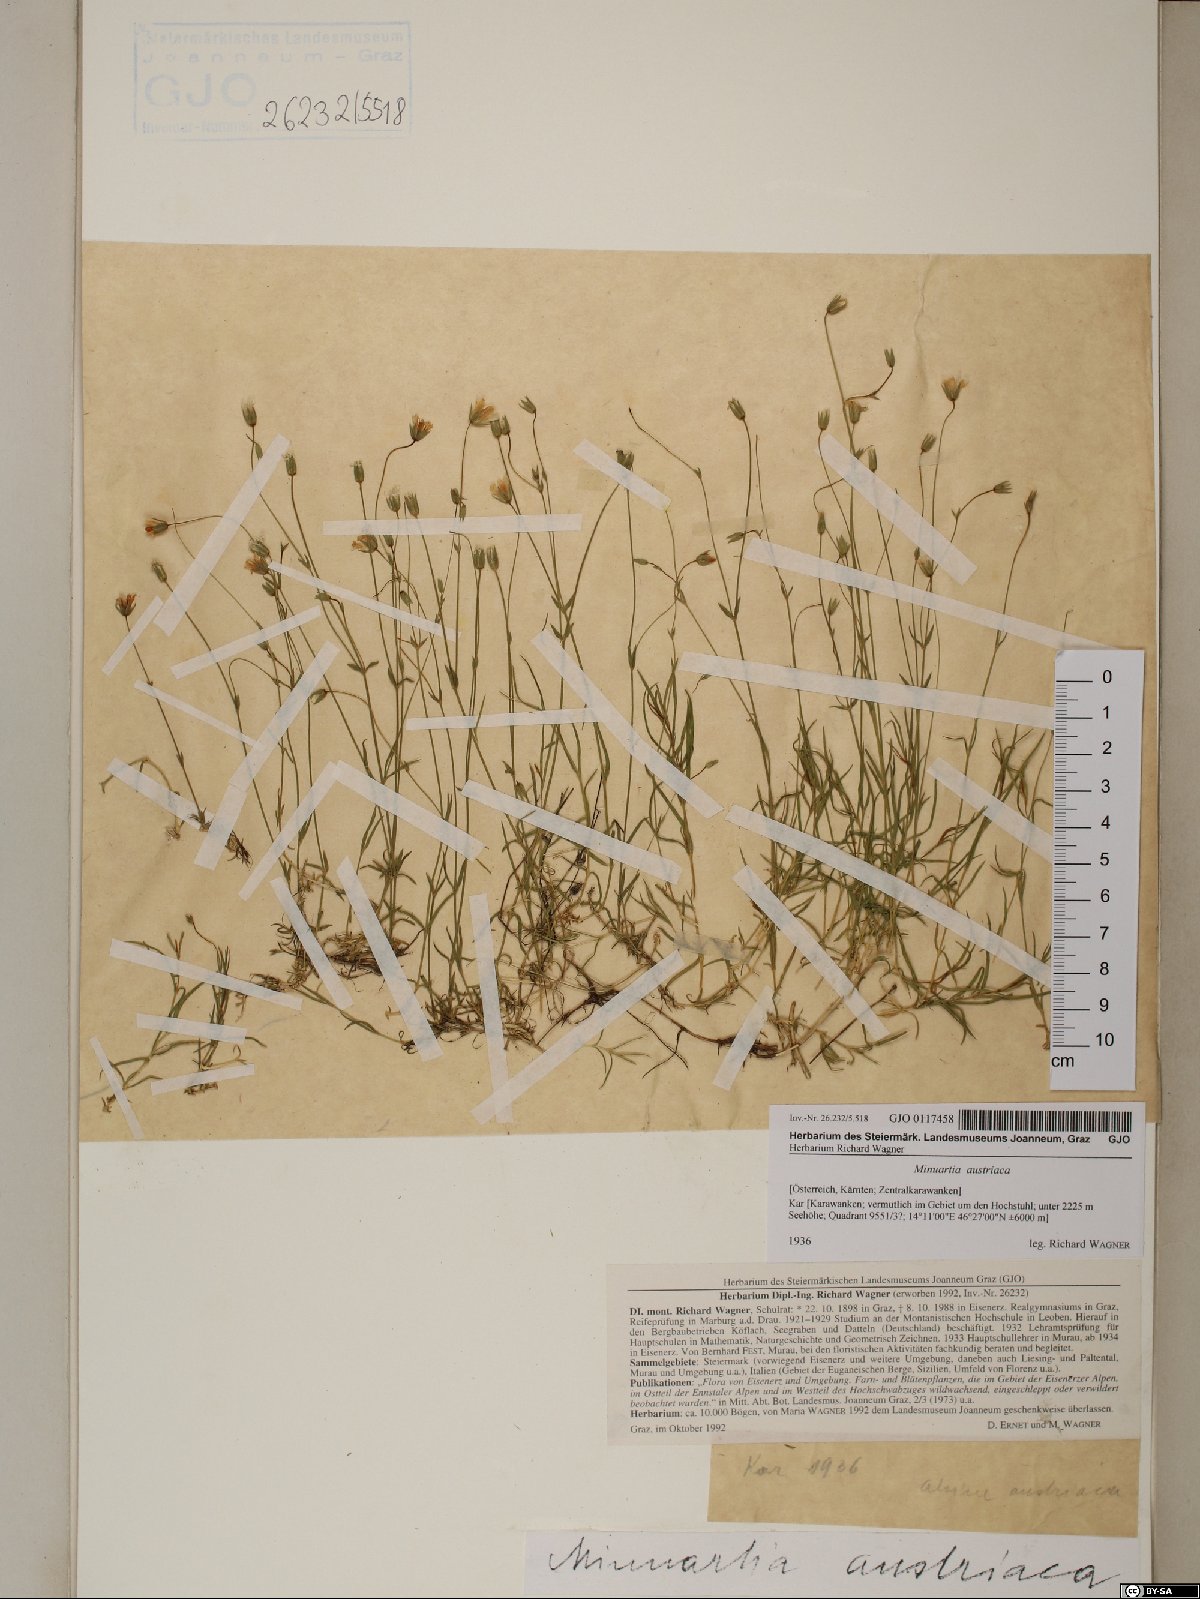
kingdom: Plantae
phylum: Tracheophyta
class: Magnoliopsida
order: Caryophyllales
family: Caryophyllaceae
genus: Sabulina
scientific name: Sabulina austriaca
